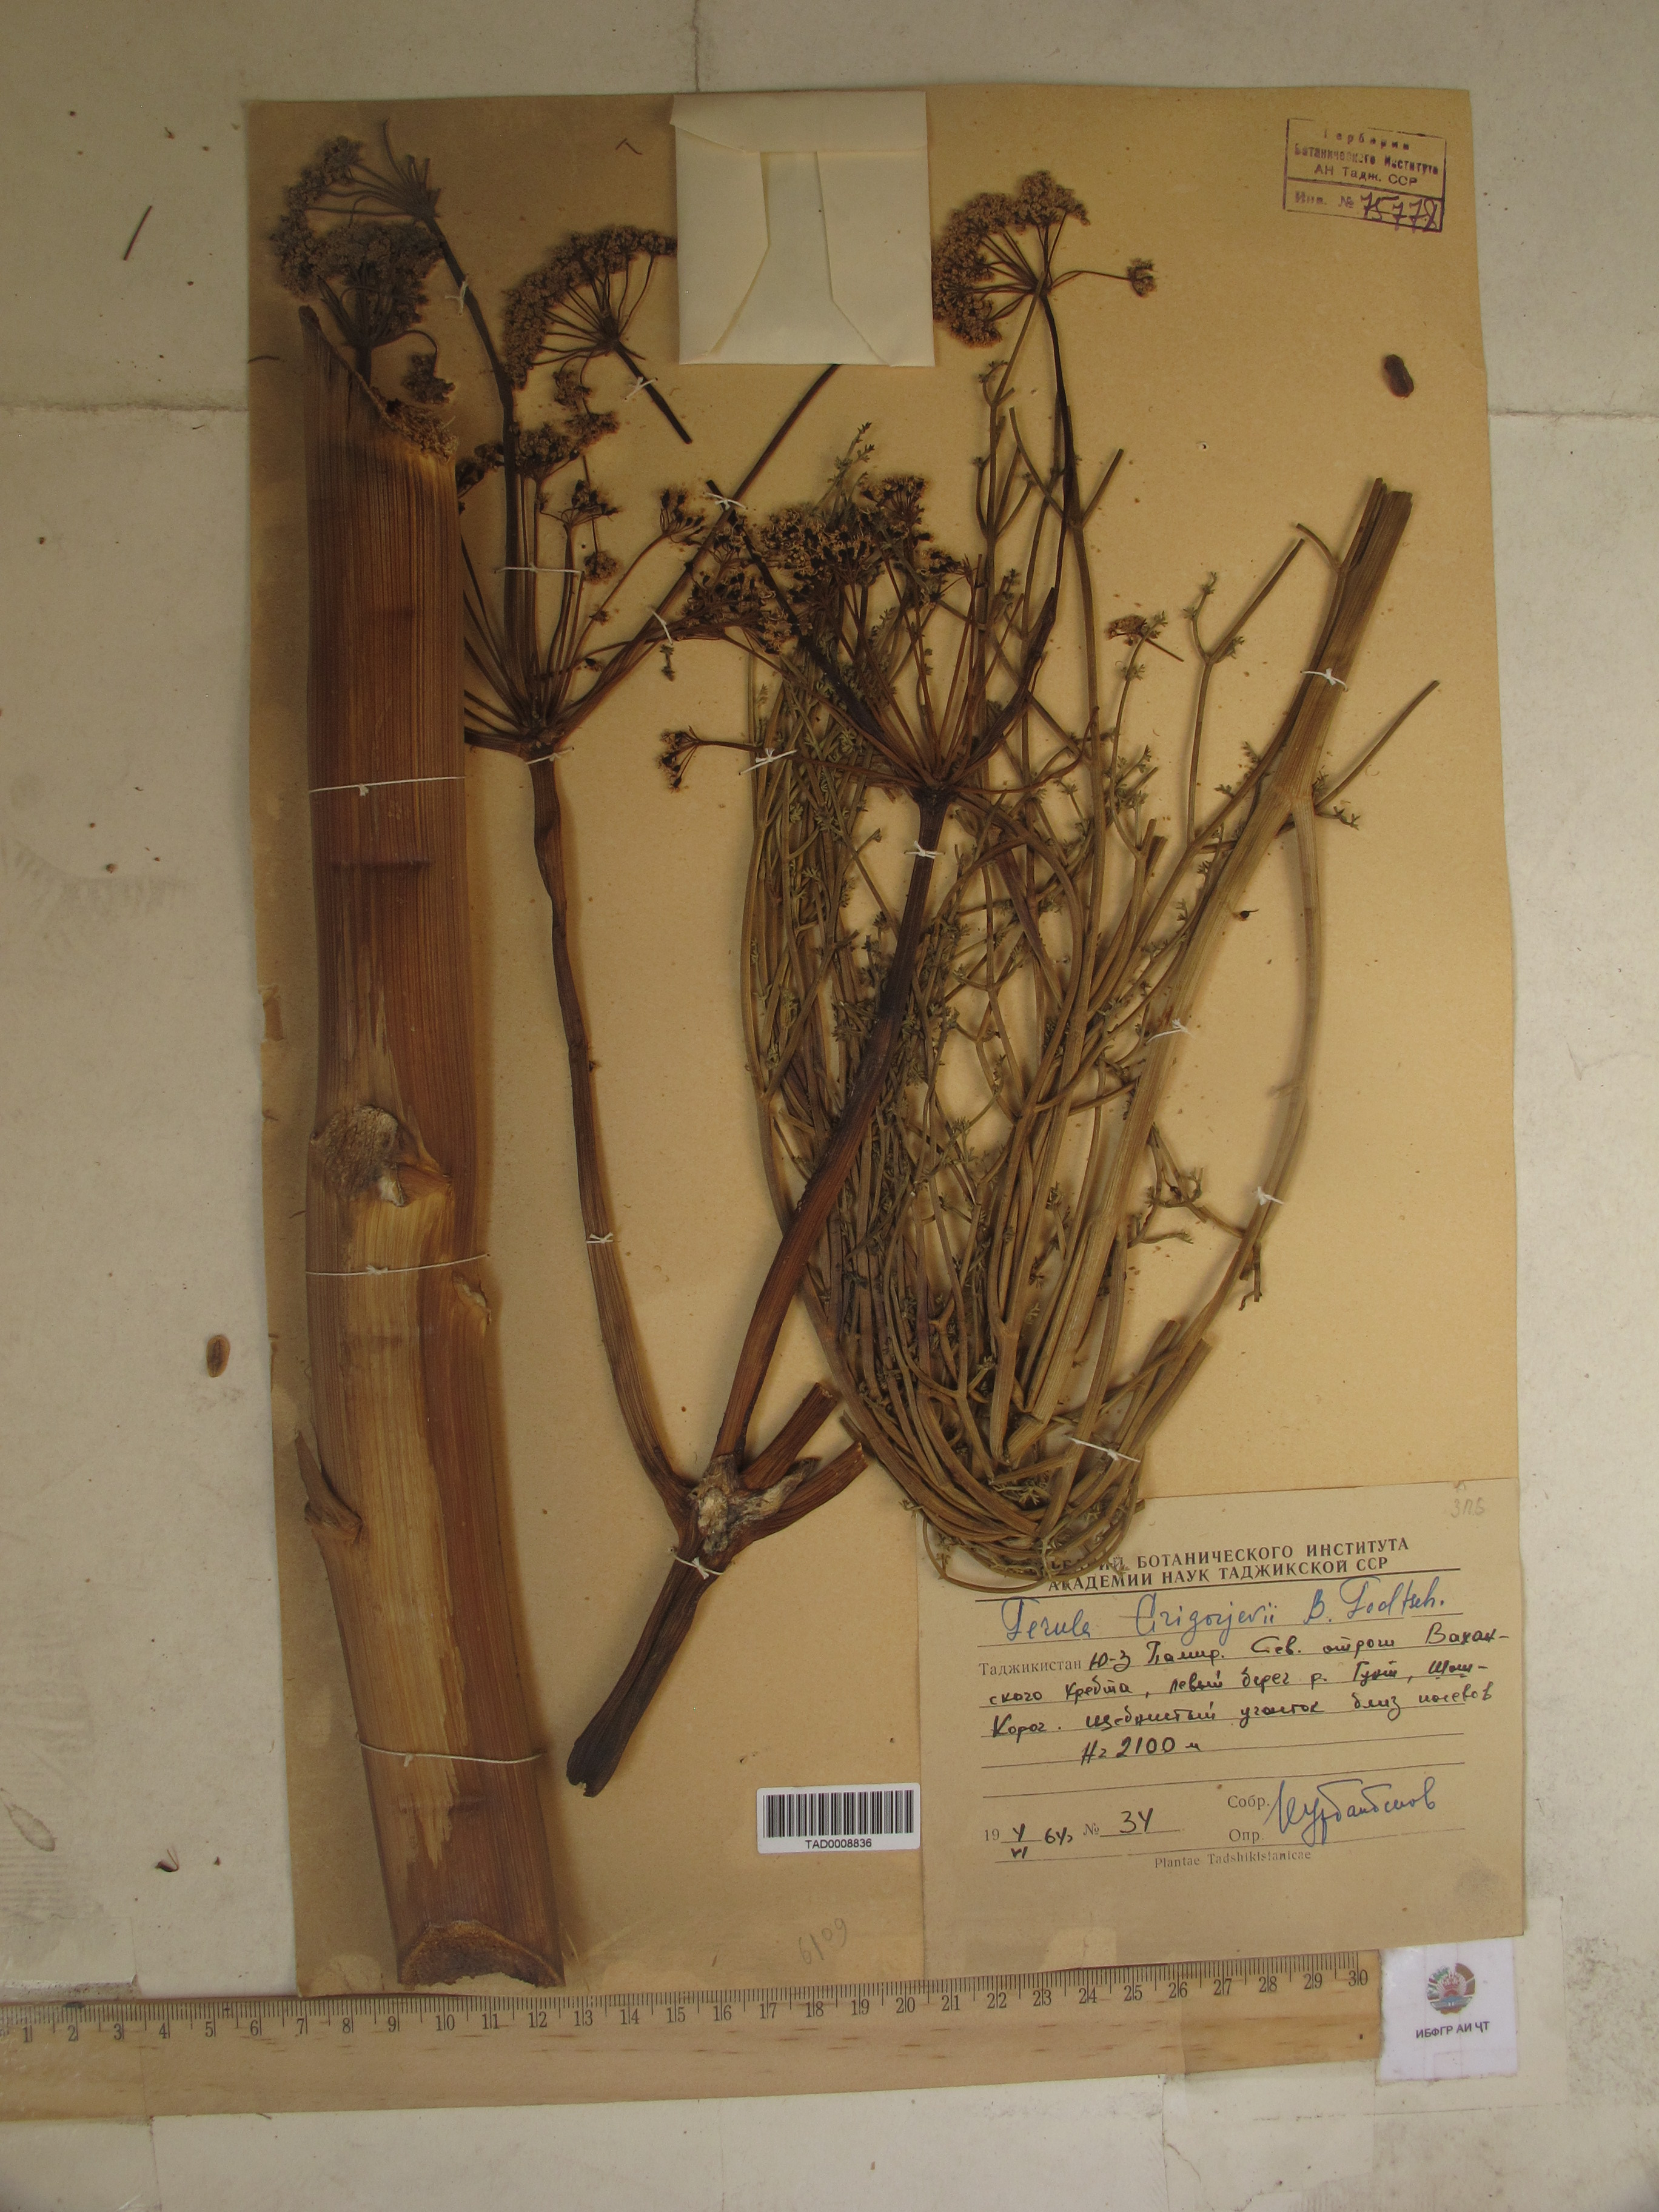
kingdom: Plantae
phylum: Tracheophyta
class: Magnoliopsida
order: Apiales
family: Apiaceae
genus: Ferula
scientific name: Ferula grigoriewii
